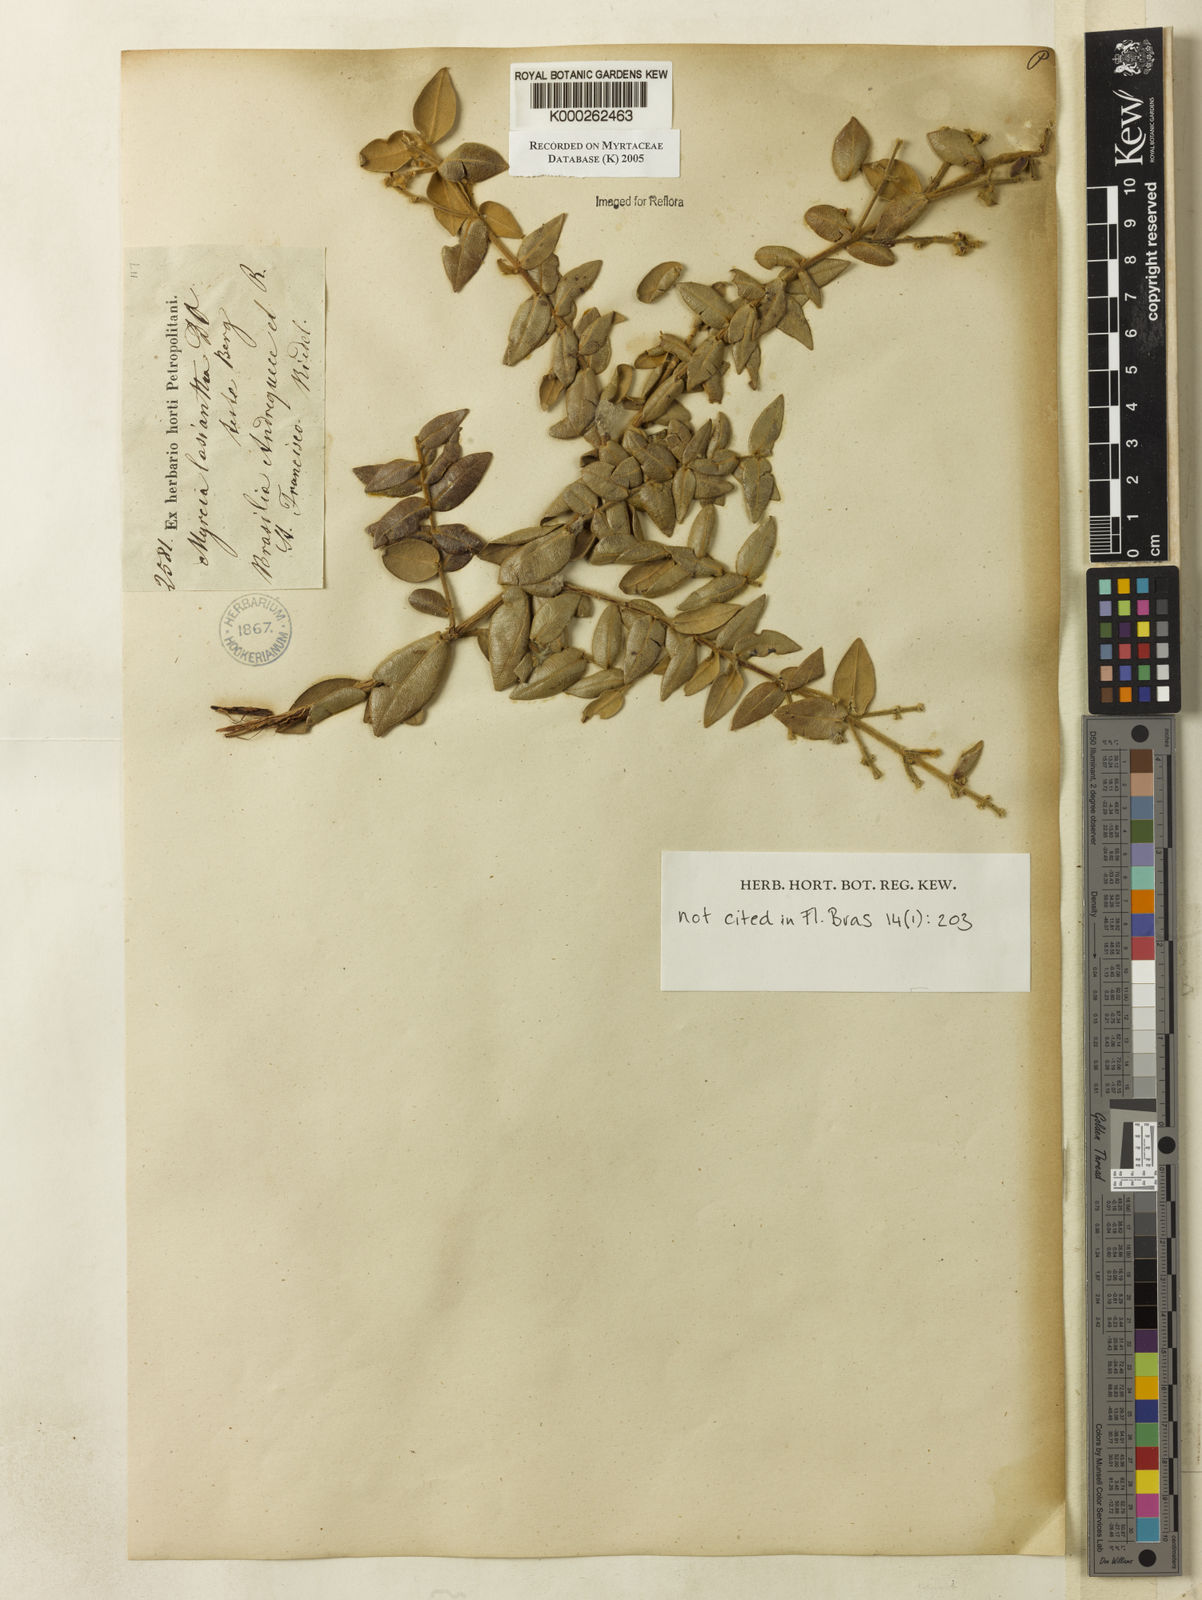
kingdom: Plantae
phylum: Tracheophyta
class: Magnoliopsida
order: Myrtales
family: Myrtaceae
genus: Myrcia
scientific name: Myrcia lasiantha
